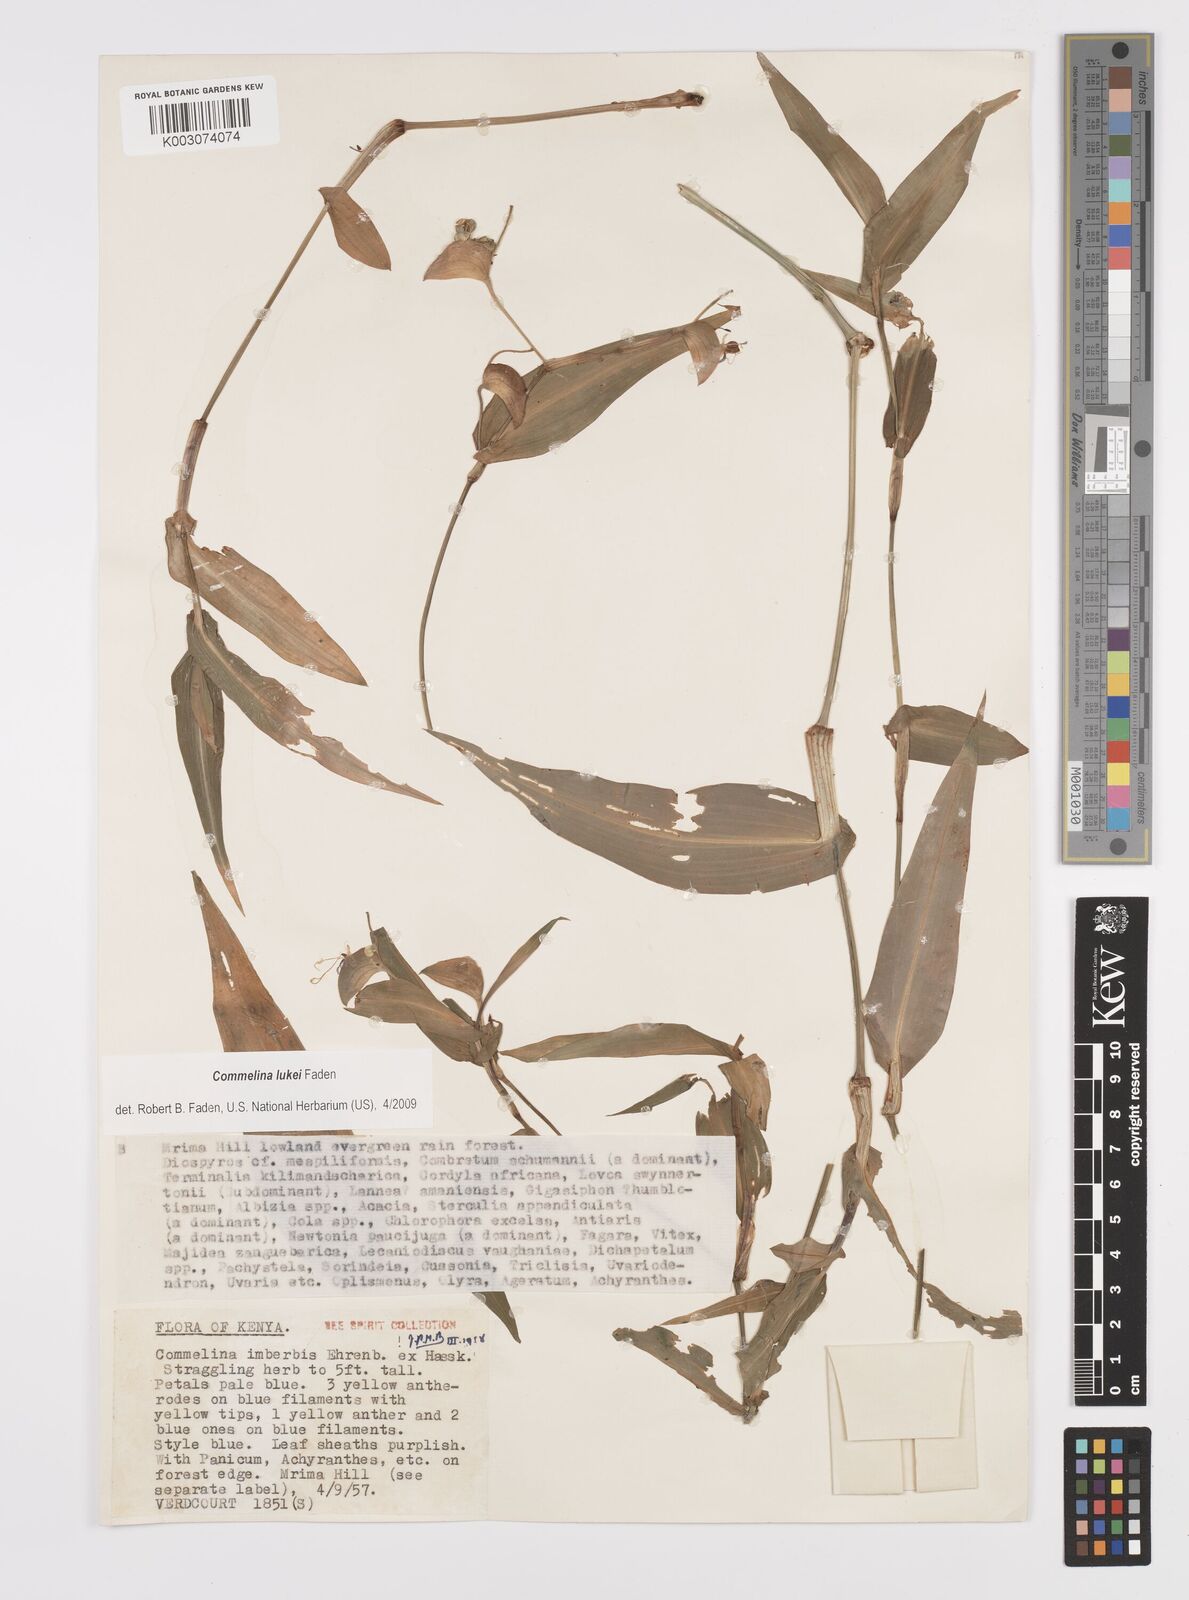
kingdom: Plantae
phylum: Tracheophyta
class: Liliopsida
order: Commelinales
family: Commelinaceae
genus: Commelina
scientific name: Commelina lukei
